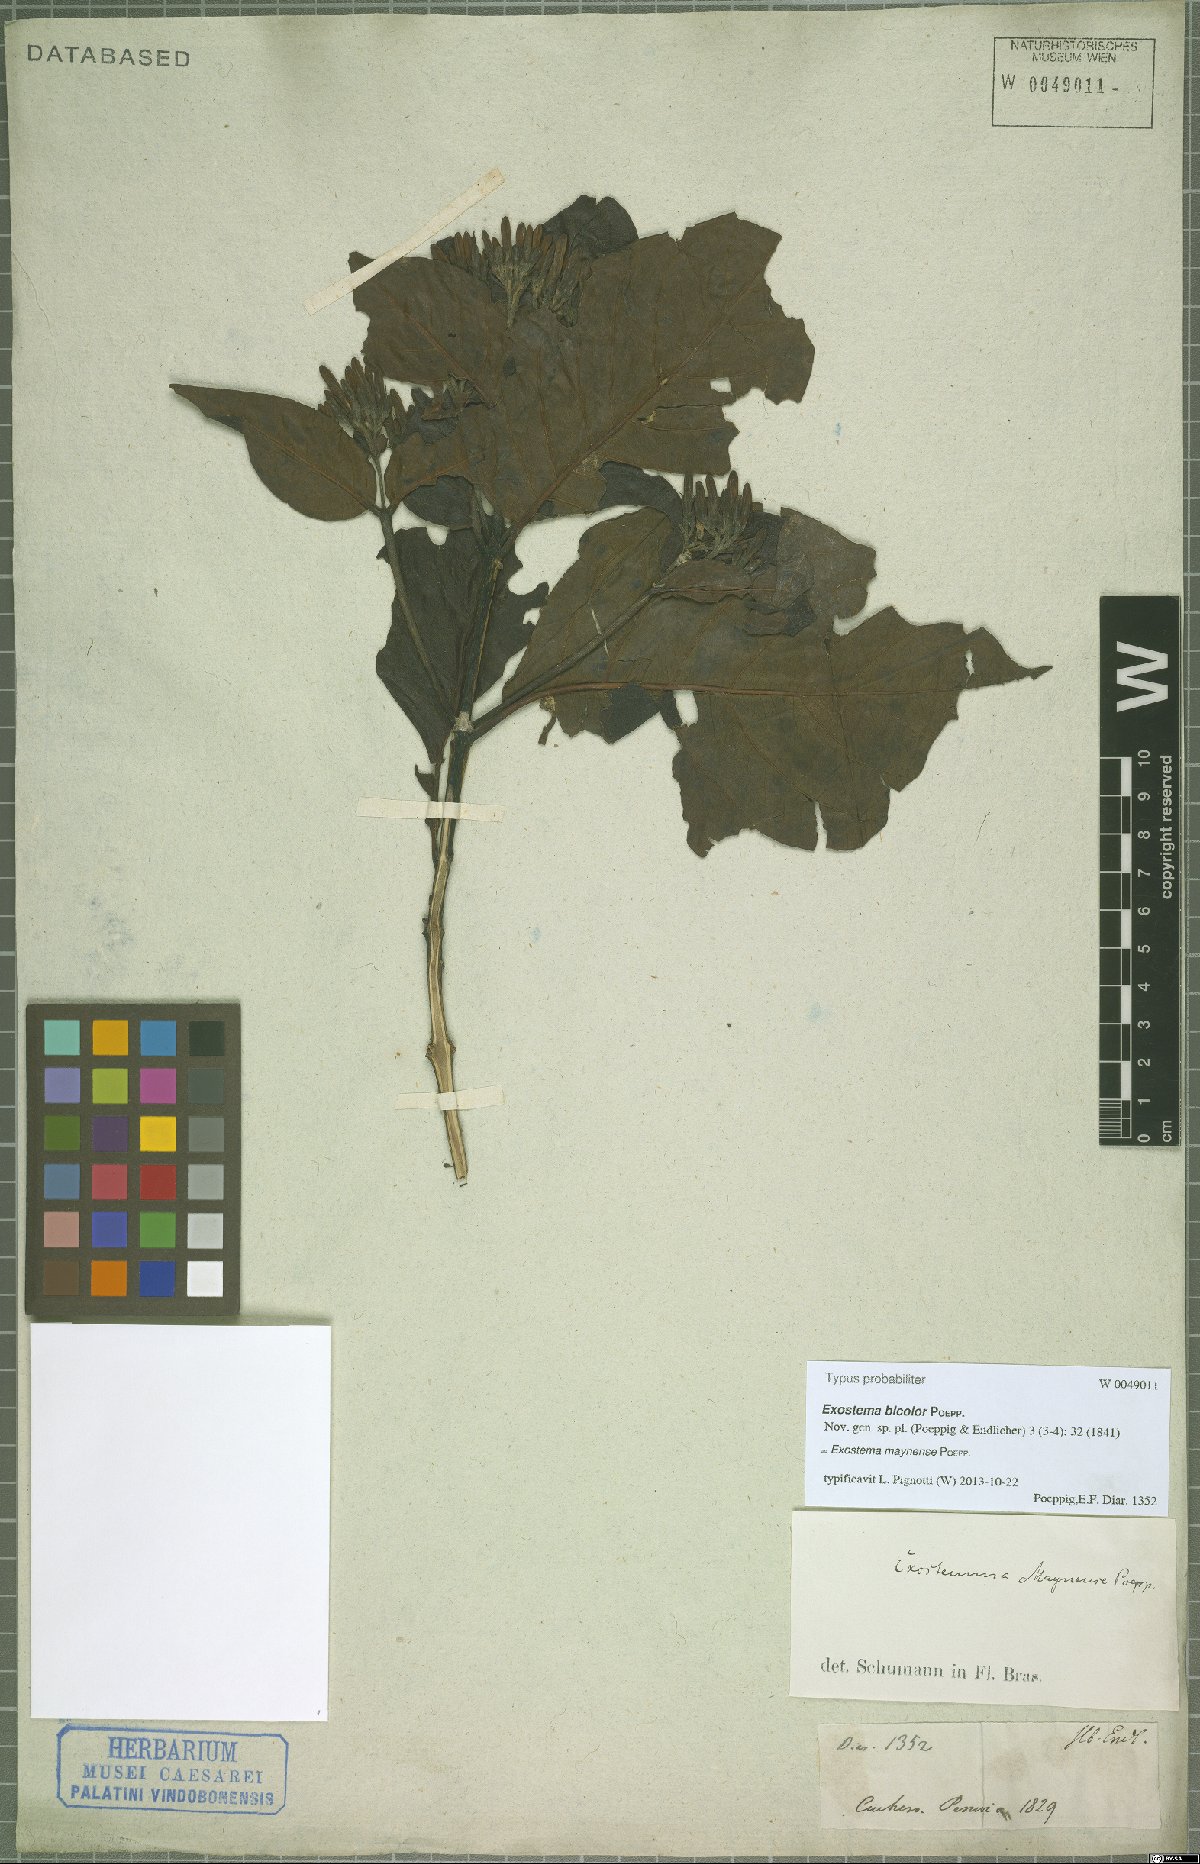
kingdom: Plantae
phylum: Tracheophyta
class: Magnoliopsida
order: Gentianales
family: Rubiaceae
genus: Adolphoduckea
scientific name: Adolphoduckea maynensis
